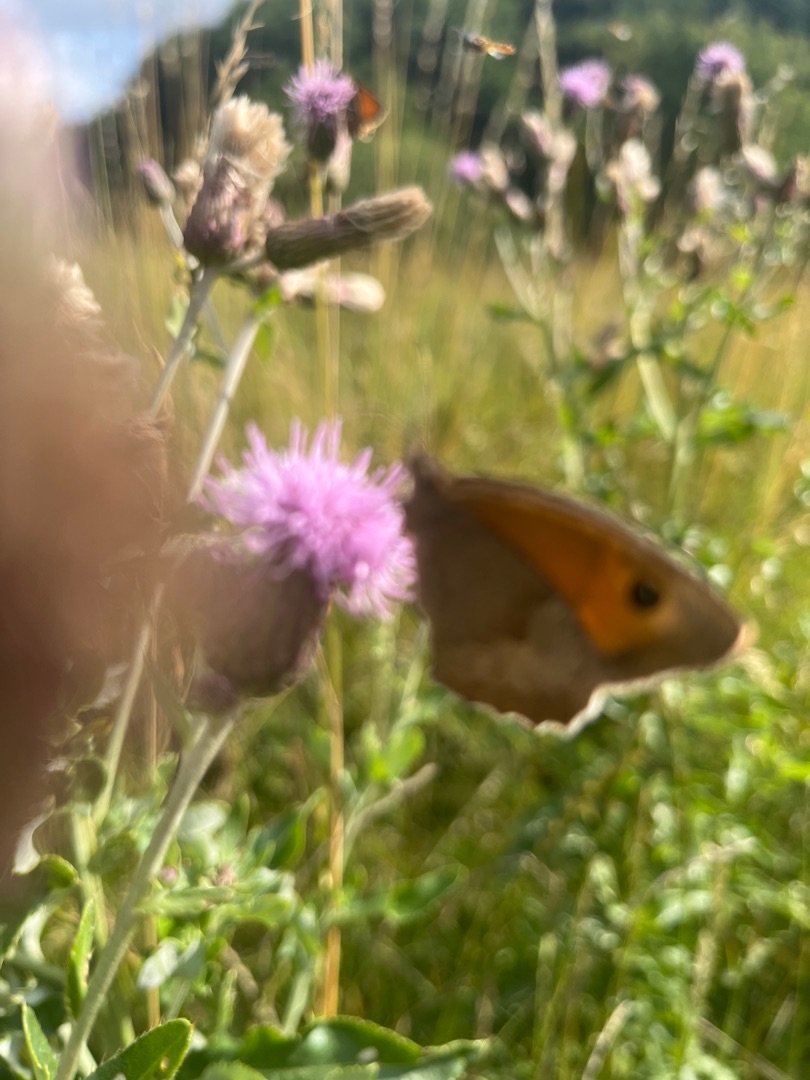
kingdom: Animalia
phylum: Arthropoda
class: Insecta
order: Lepidoptera
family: Nymphalidae
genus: Maniola
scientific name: Maniola jurtina
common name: Græsrandøje
